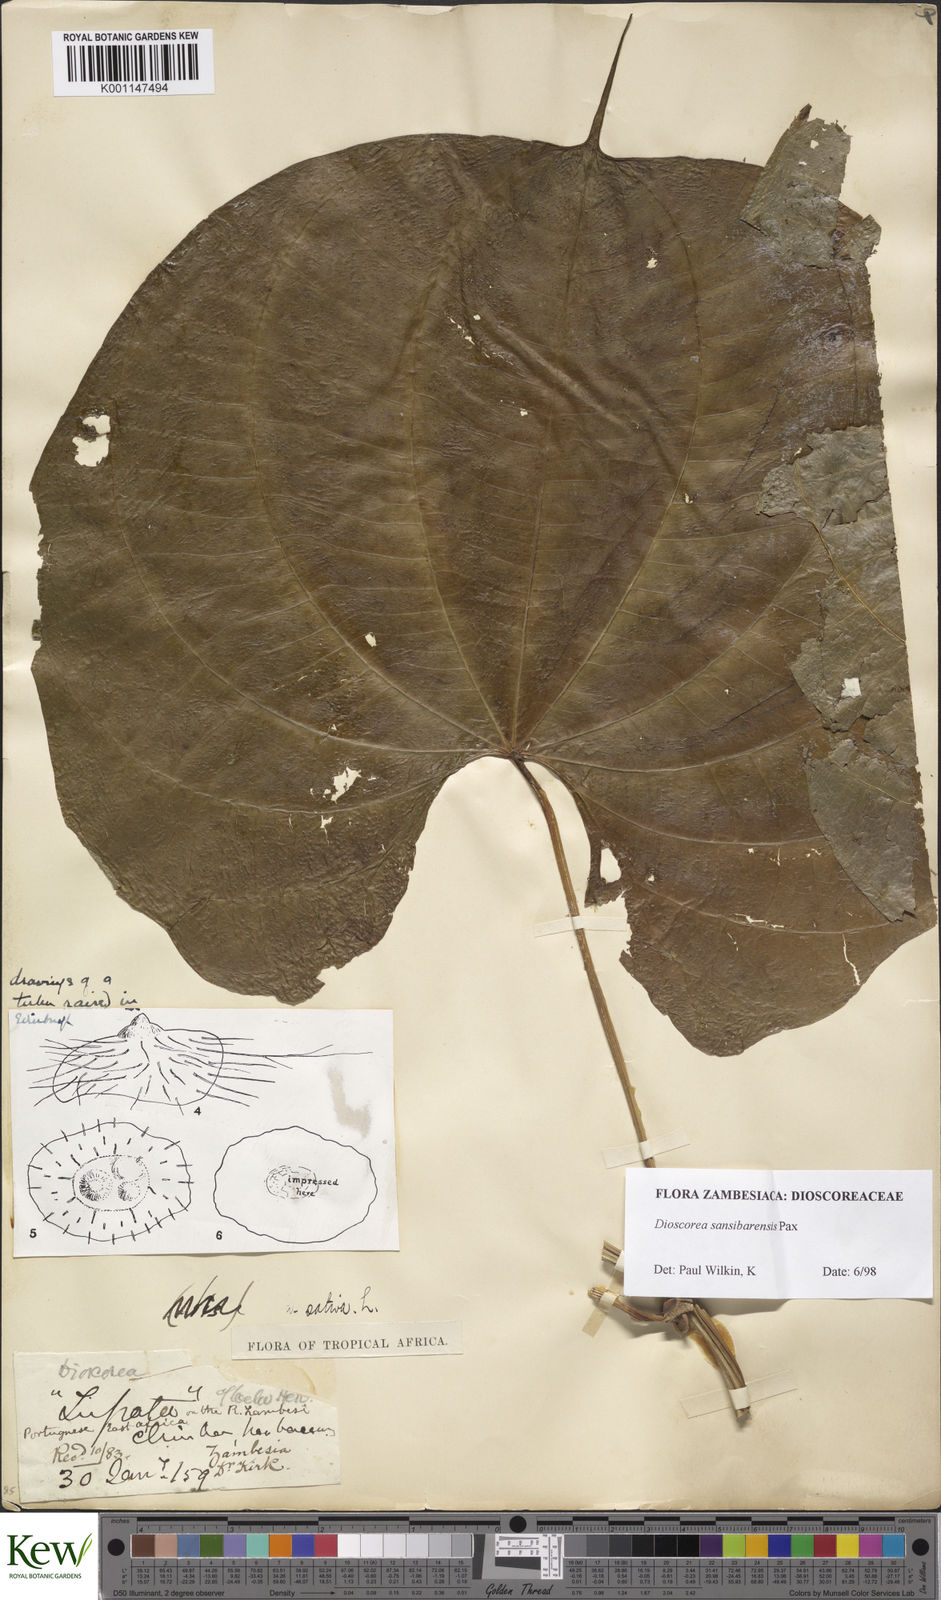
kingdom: Plantae
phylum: Tracheophyta
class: Liliopsida
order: Dioscoreales
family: Dioscoreaceae
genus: Dioscorea
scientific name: Dioscorea sansibarensis
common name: Zanzibar yam
